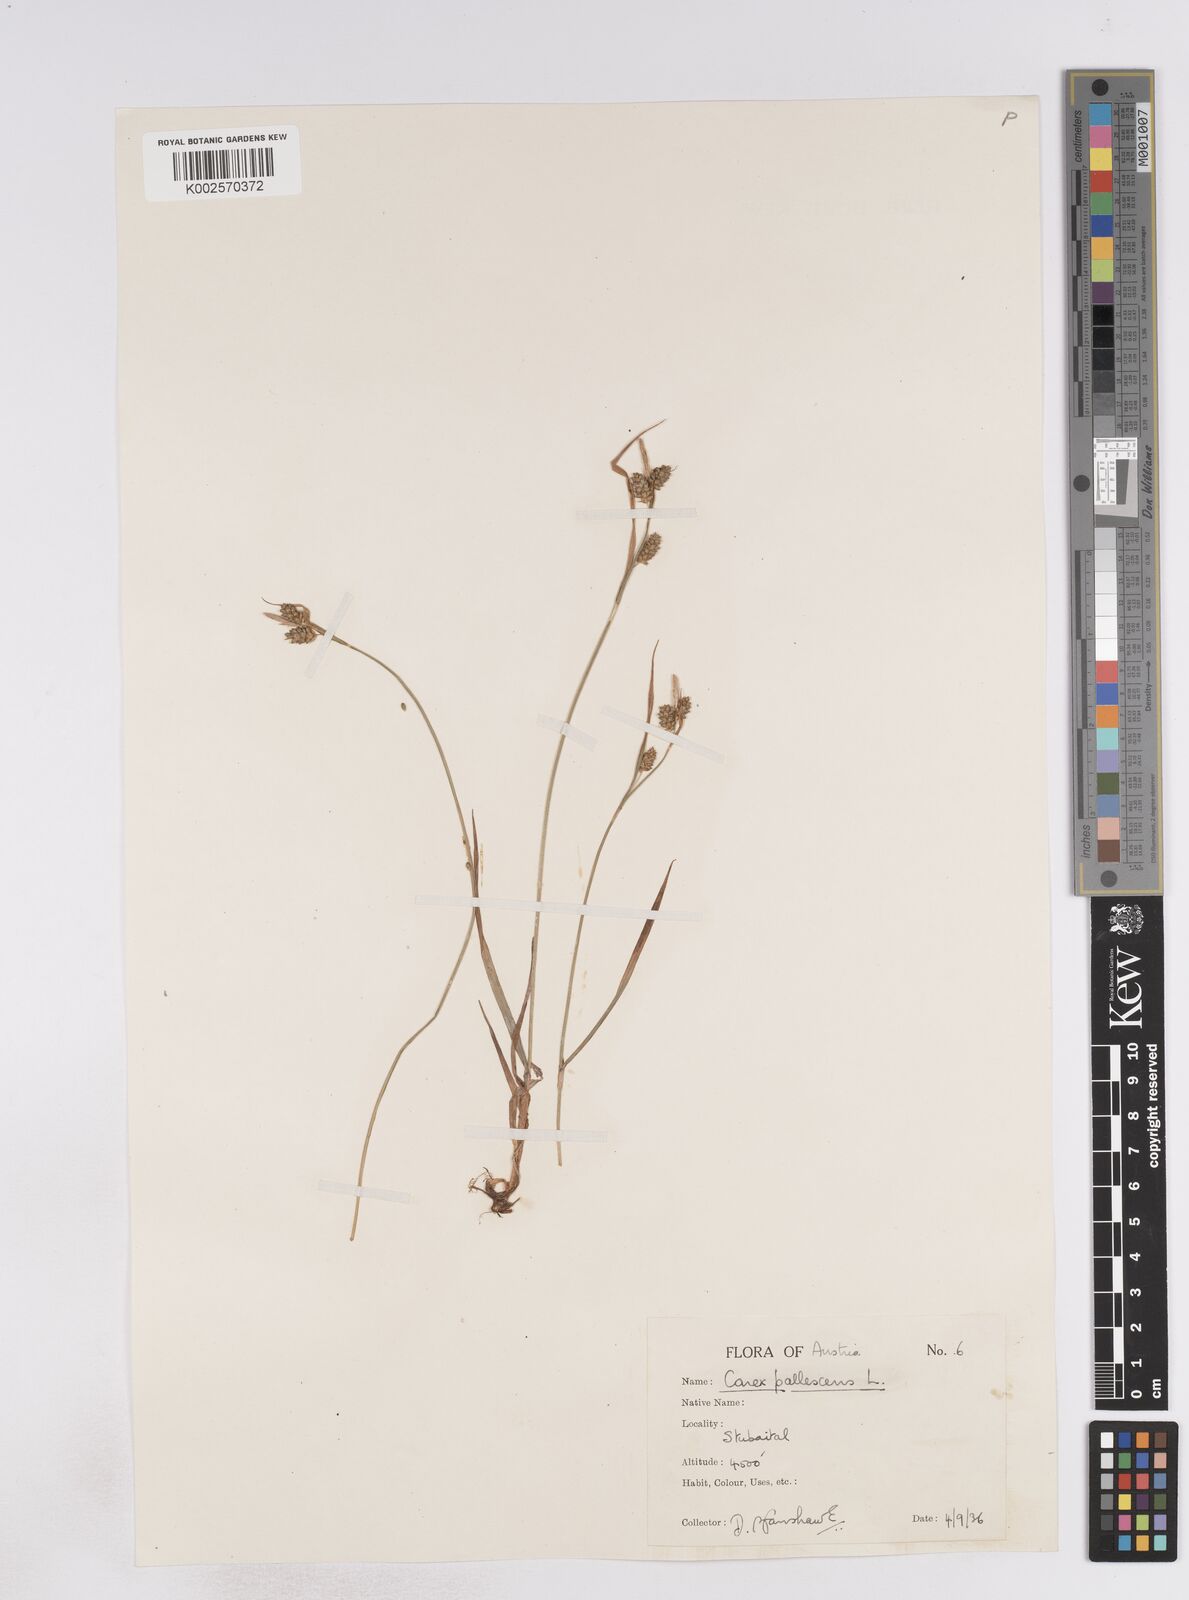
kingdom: Plantae
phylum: Tracheophyta
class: Liliopsida
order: Poales
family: Cyperaceae
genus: Carex
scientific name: Carex pallescens
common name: Pale sedge
